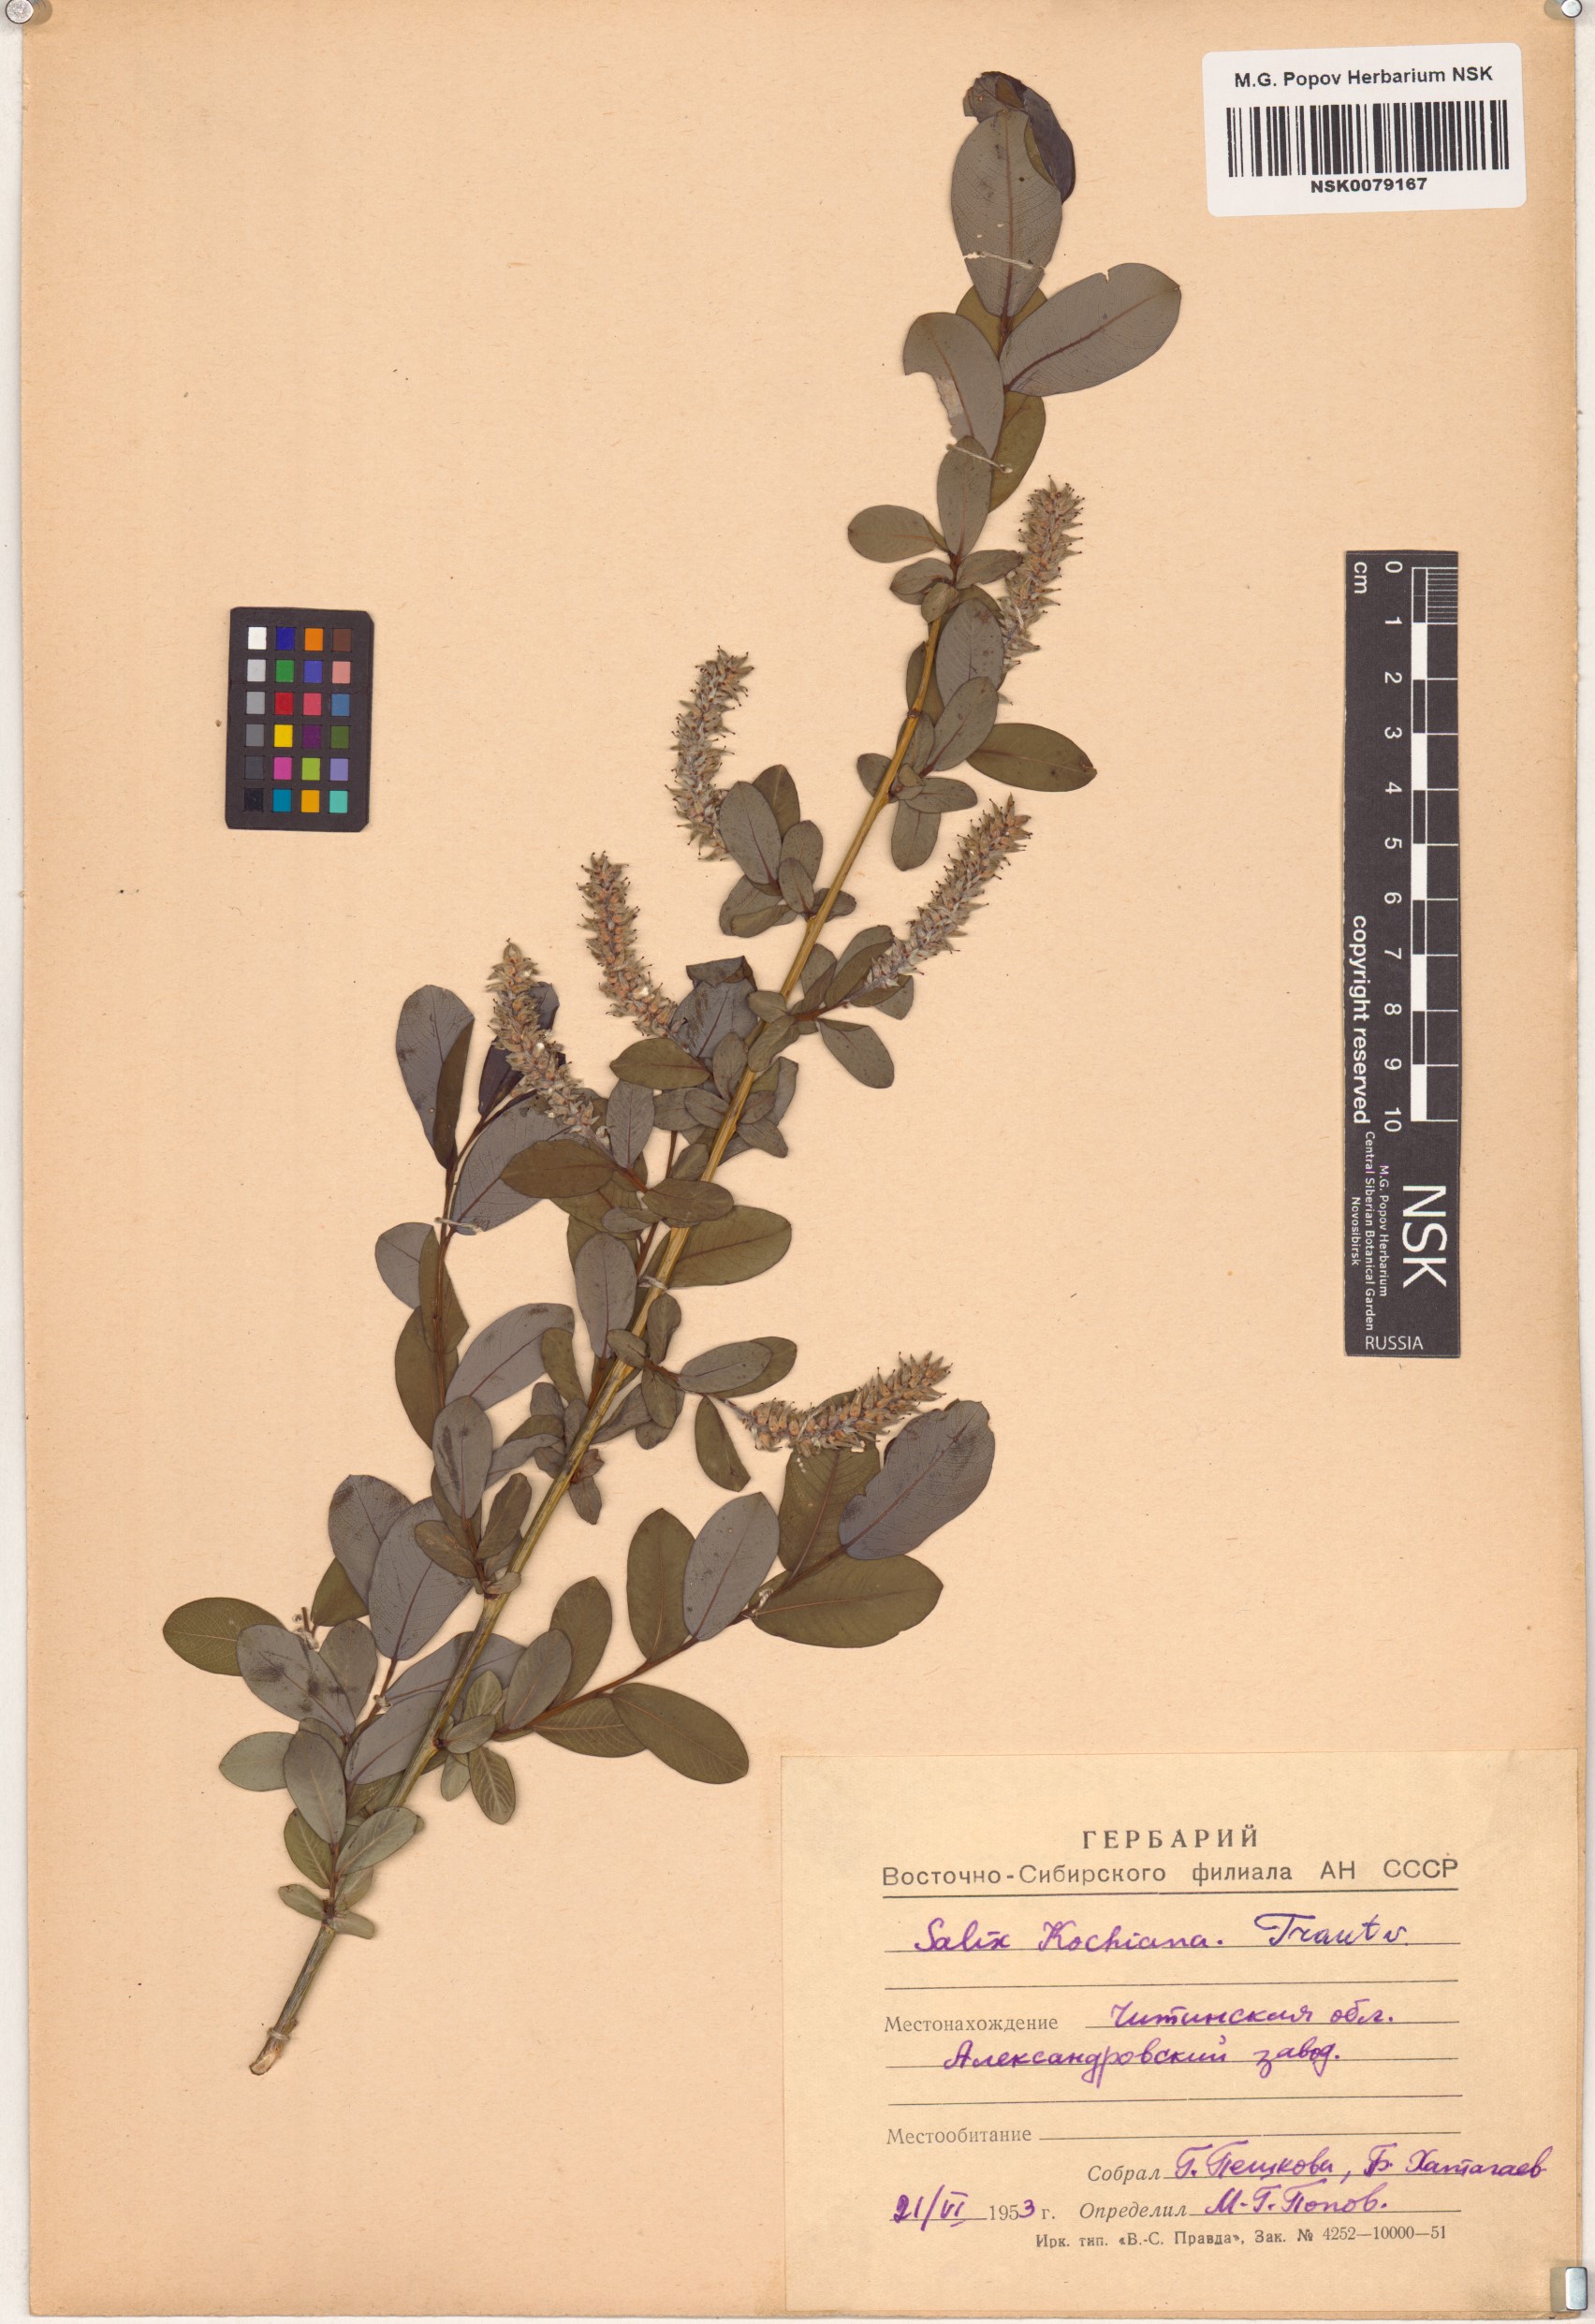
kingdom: Plantae
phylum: Tracheophyta
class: Magnoliopsida
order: Malpighiales
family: Salicaceae
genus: Salix
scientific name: Salix kochiana
